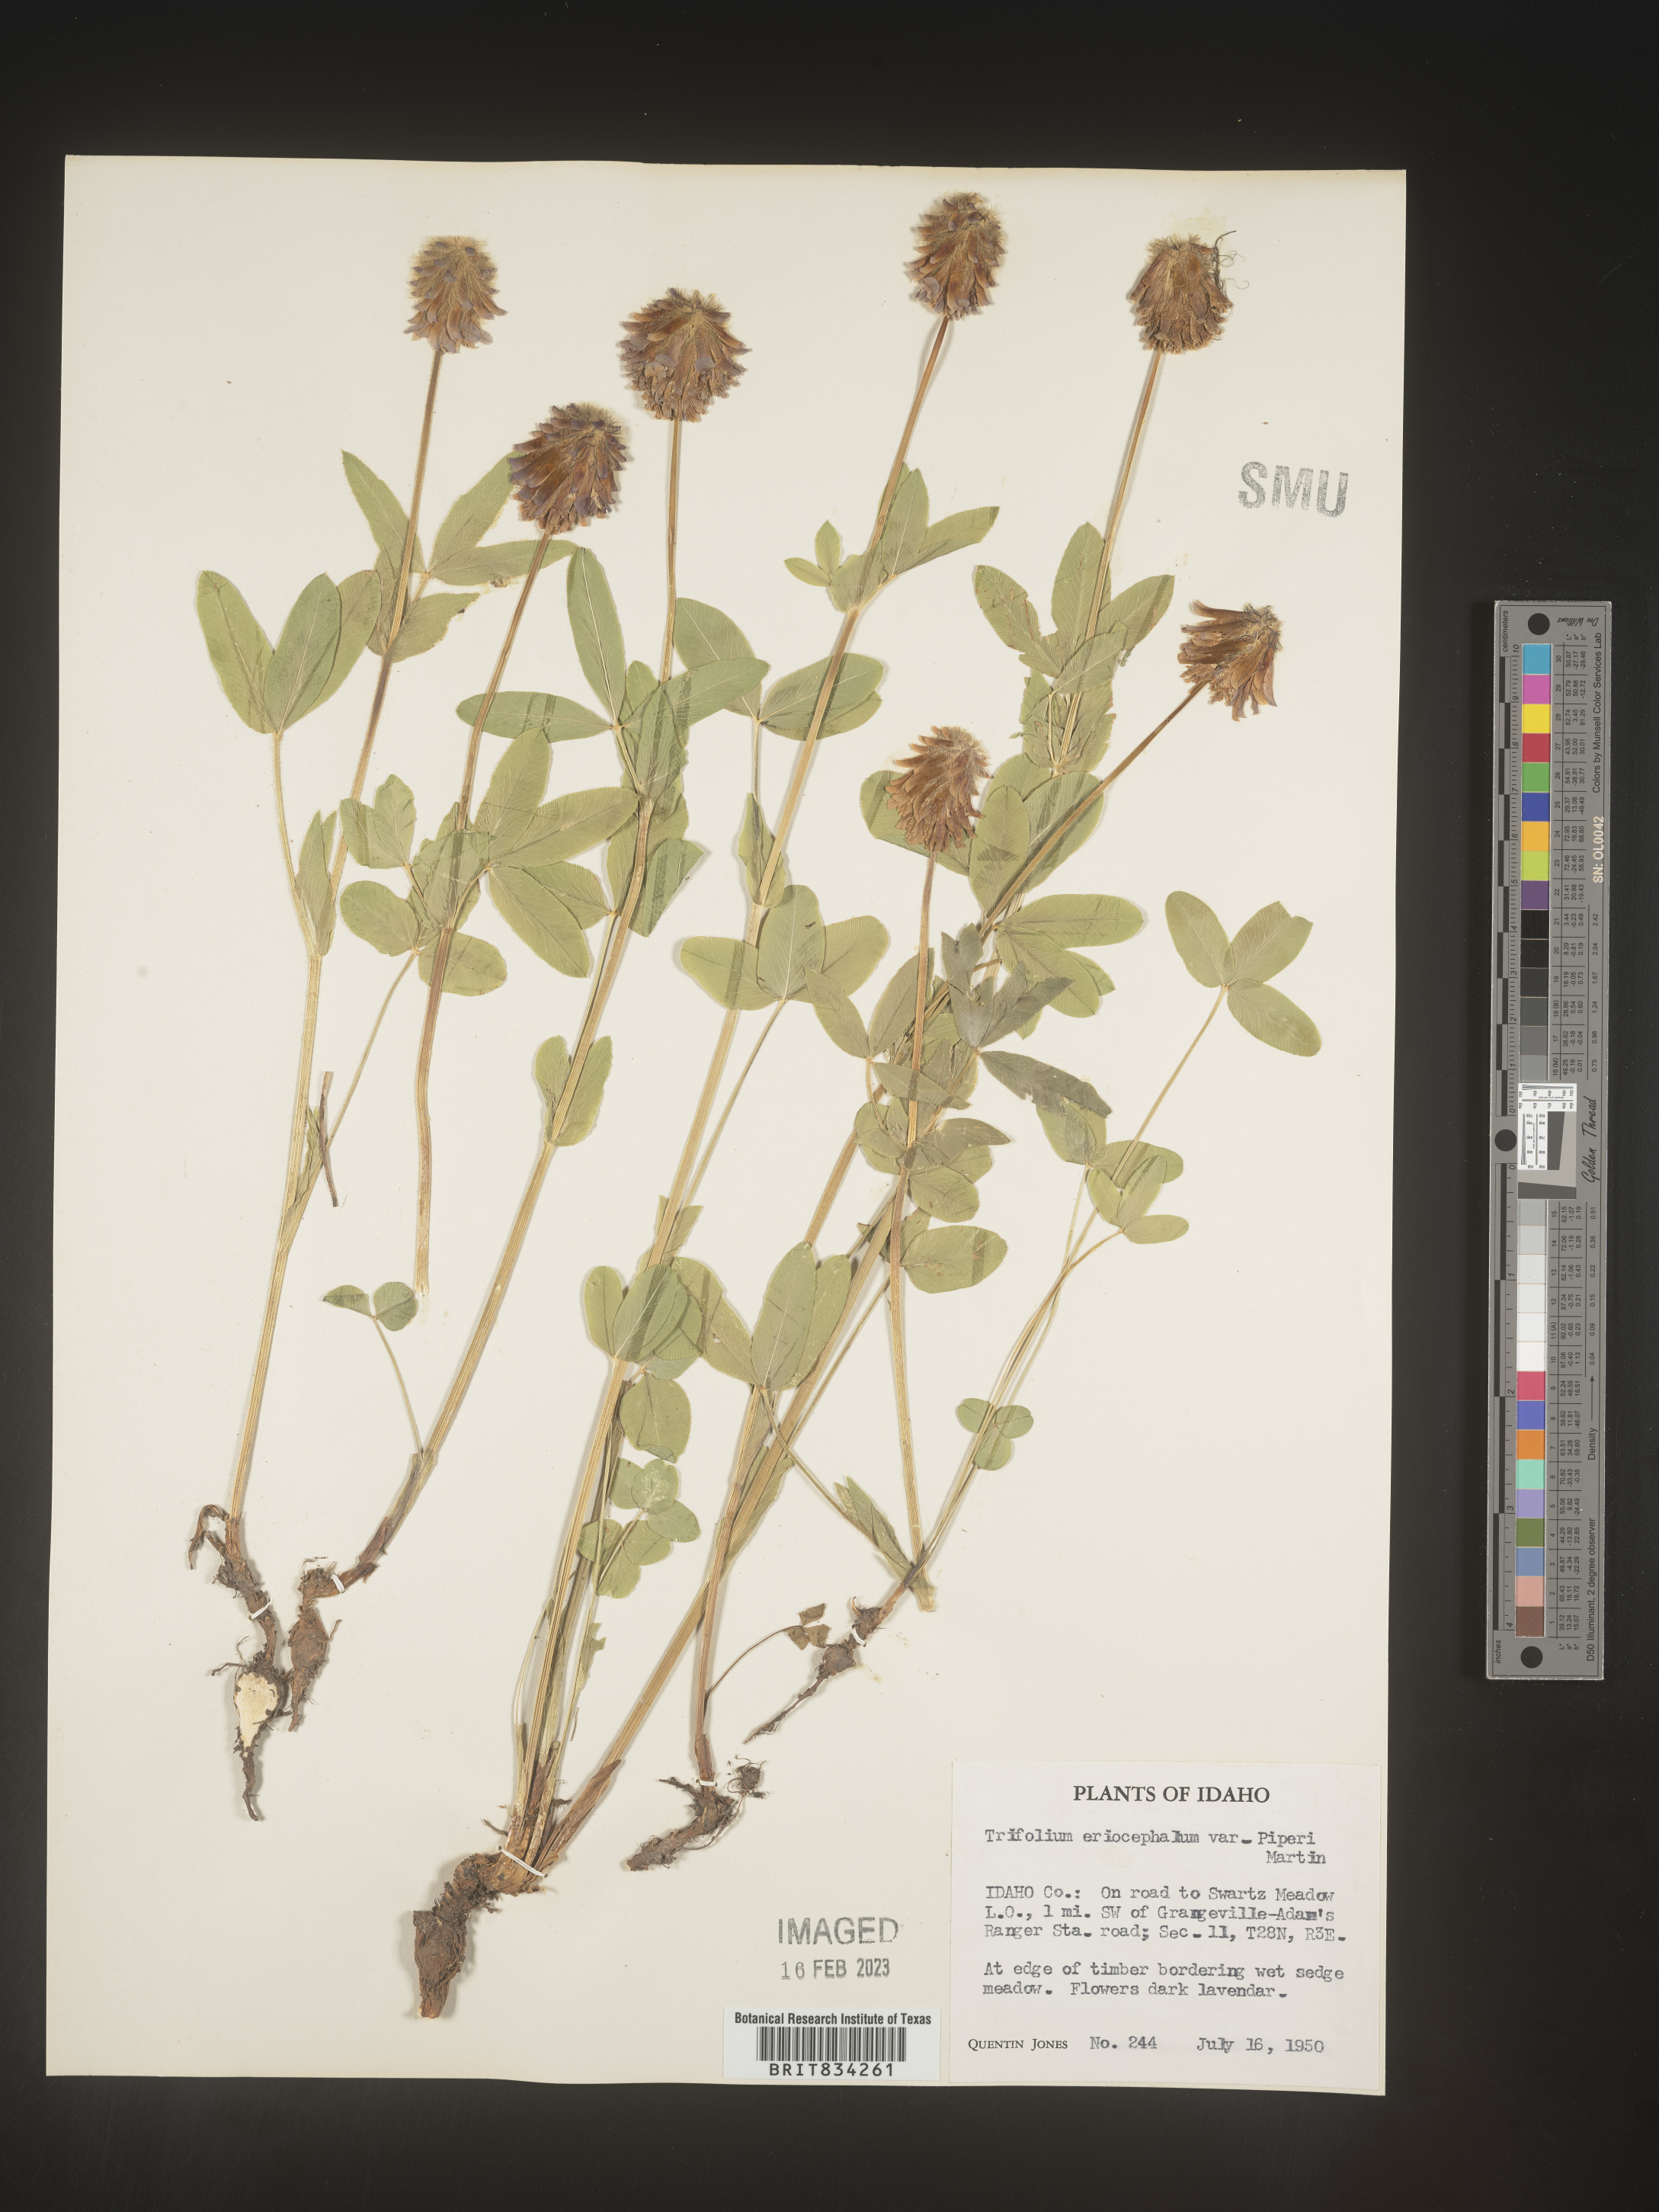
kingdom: Plantae
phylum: Tracheophyta
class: Magnoliopsida
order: Fabales
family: Fabaceae
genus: Trifolium
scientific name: Trifolium
